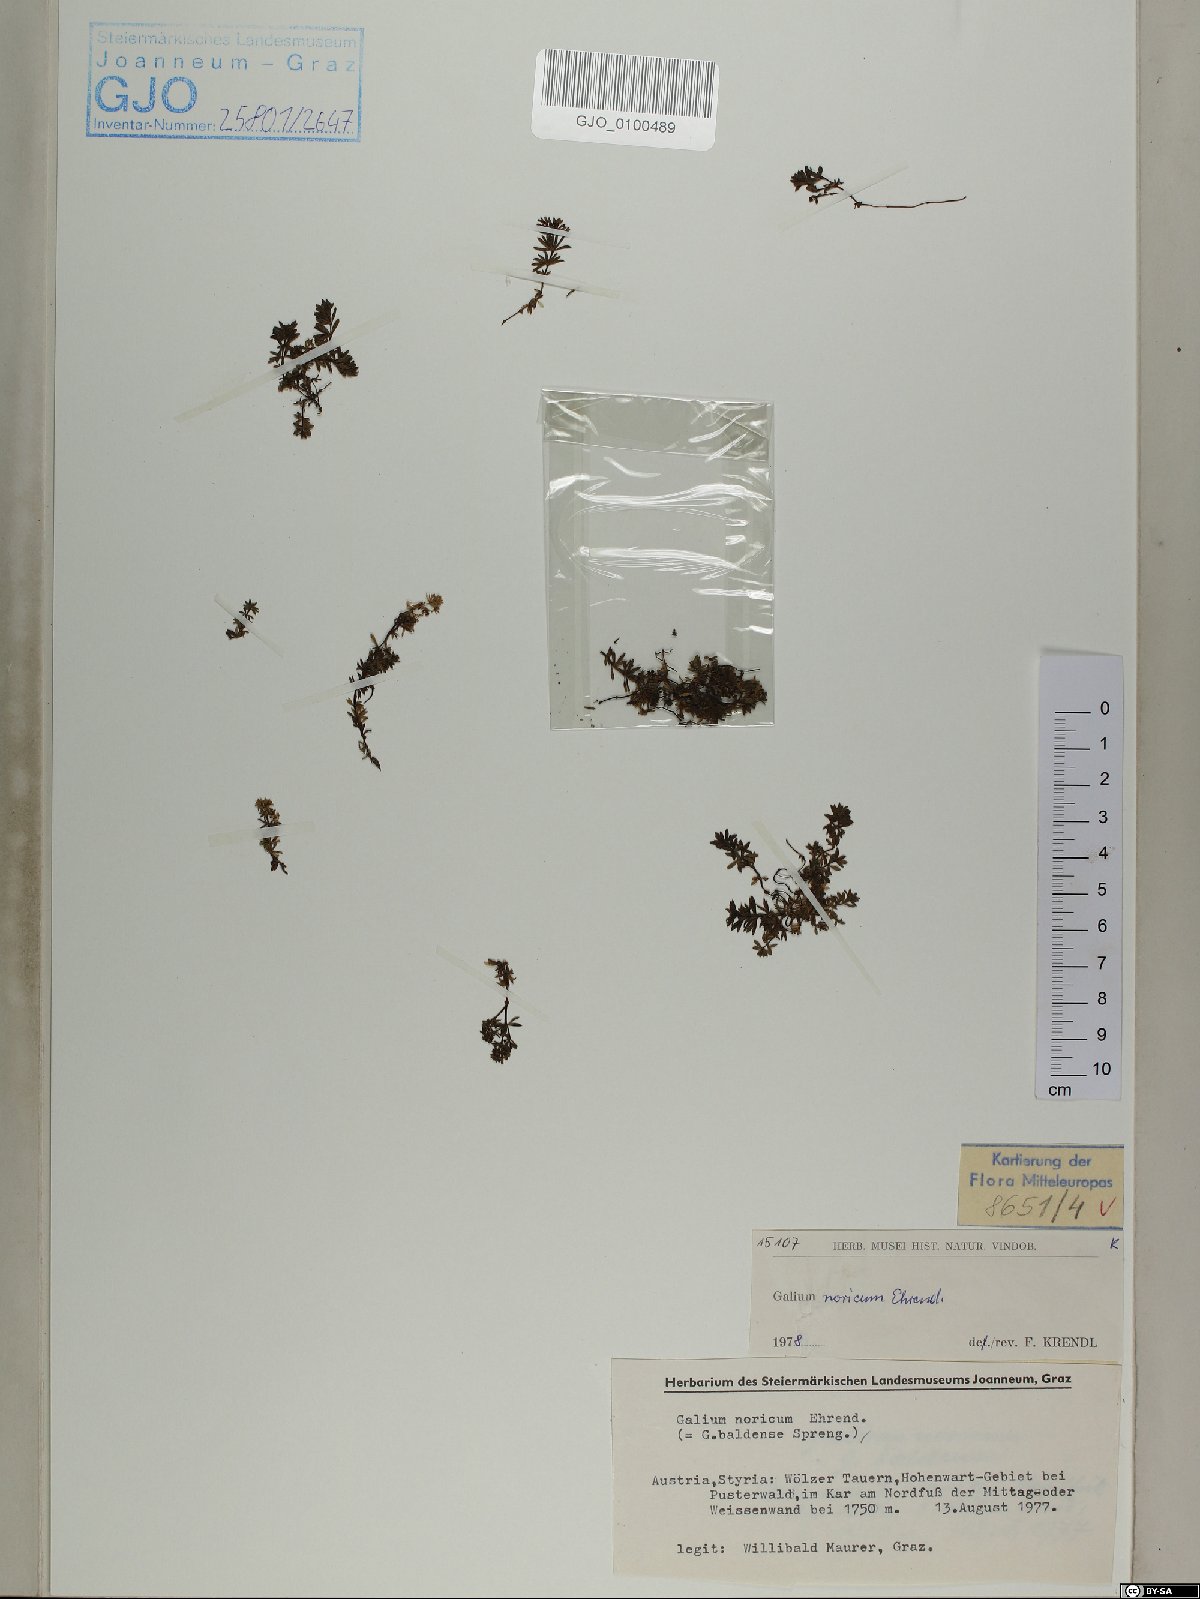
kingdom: Plantae
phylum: Tracheophyta
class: Magnoliopsida
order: Gentianales
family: Rubiaceae
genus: Galium
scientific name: Galium noricum
